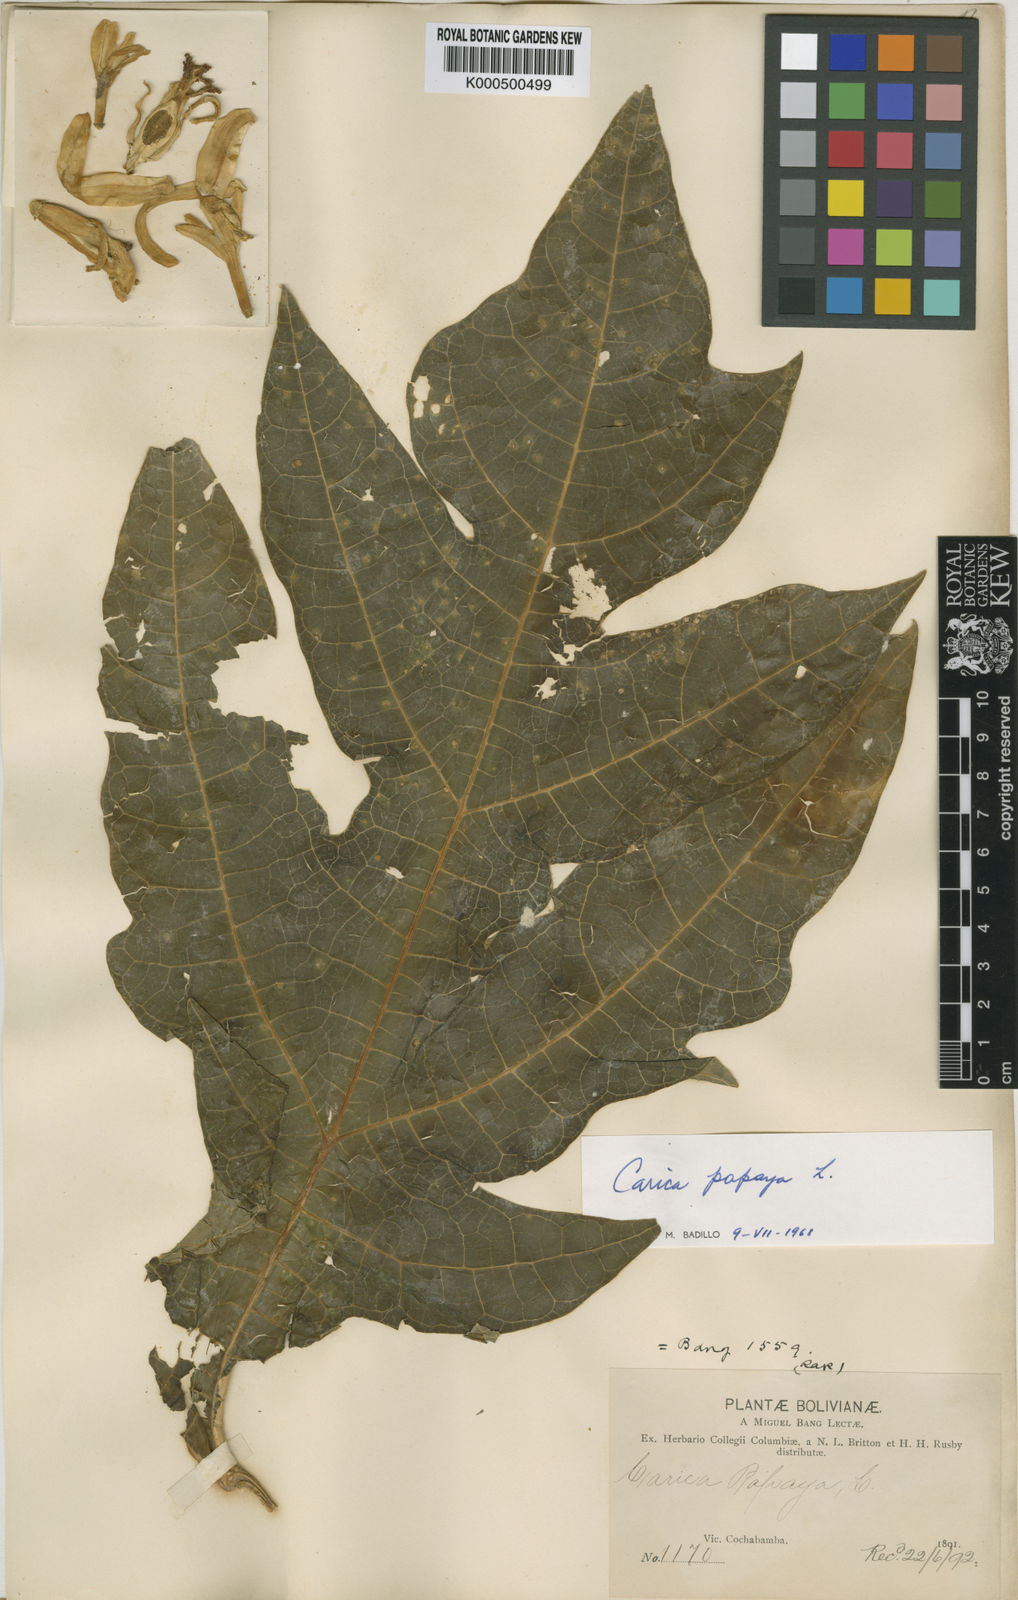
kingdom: Plantae
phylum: Tracheophyta
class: Magnoliopsida
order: Brassicales
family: Caricaceae
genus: Carica
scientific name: Carica papaya
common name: Papaya
